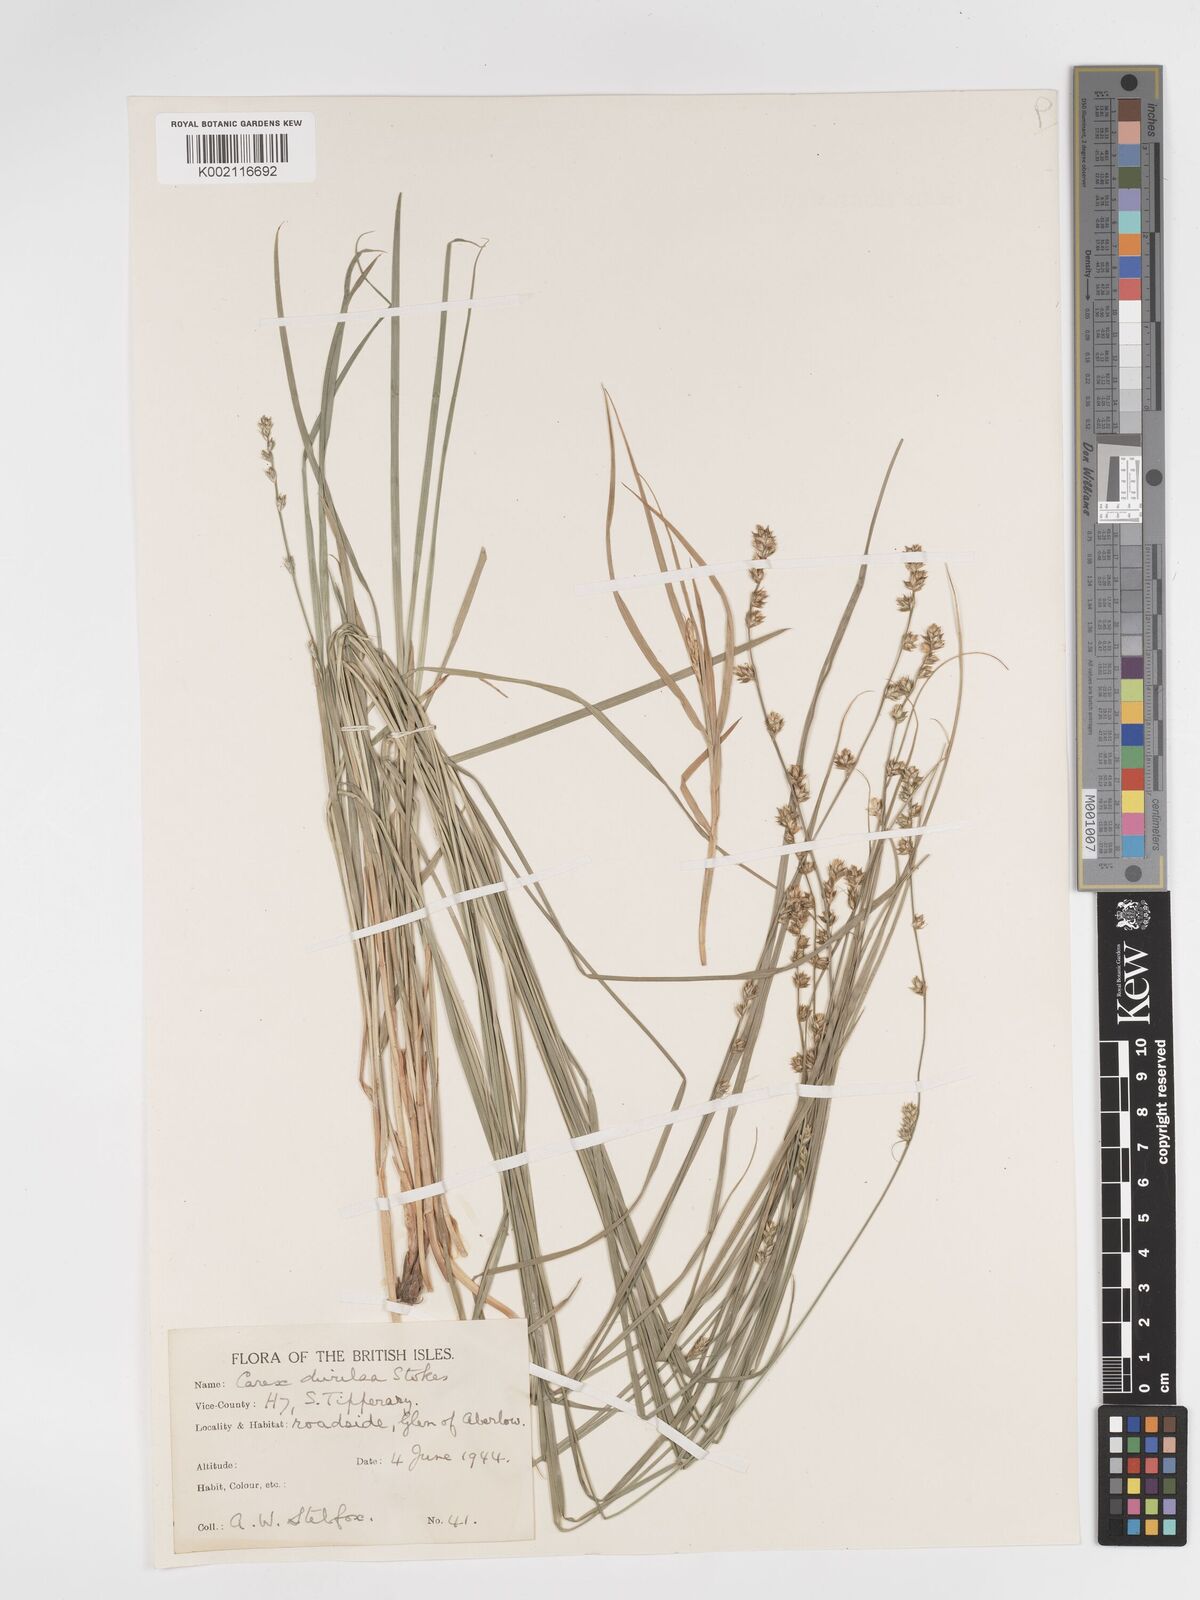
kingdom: Plantae
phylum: Tracheophyta
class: Liliopsida
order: Poales
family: Cyperaceae
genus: Carex
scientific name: Carex divulsa
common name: Grassland sedge
